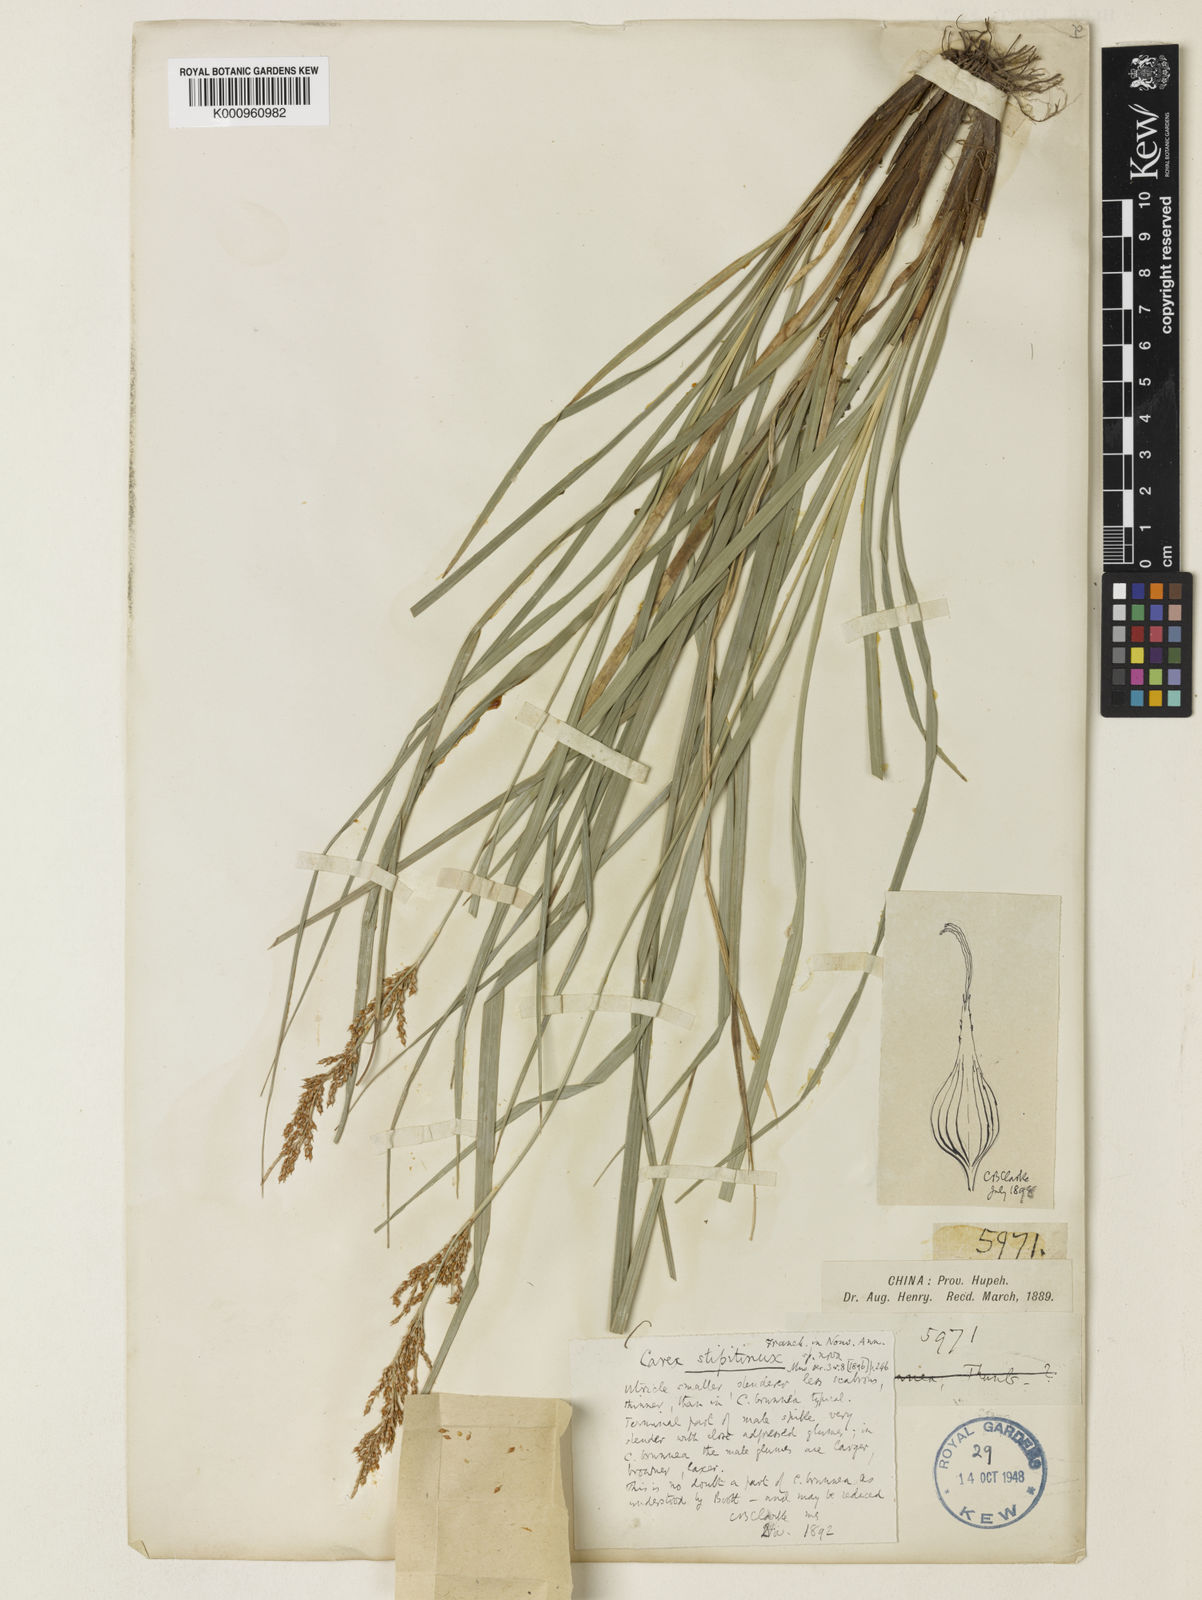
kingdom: Plantae
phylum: Tracheophyta
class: Liliopsida
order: Poales
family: Cyperaceae
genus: Carex
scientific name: Carex brunnea
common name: Greater brown sedge
